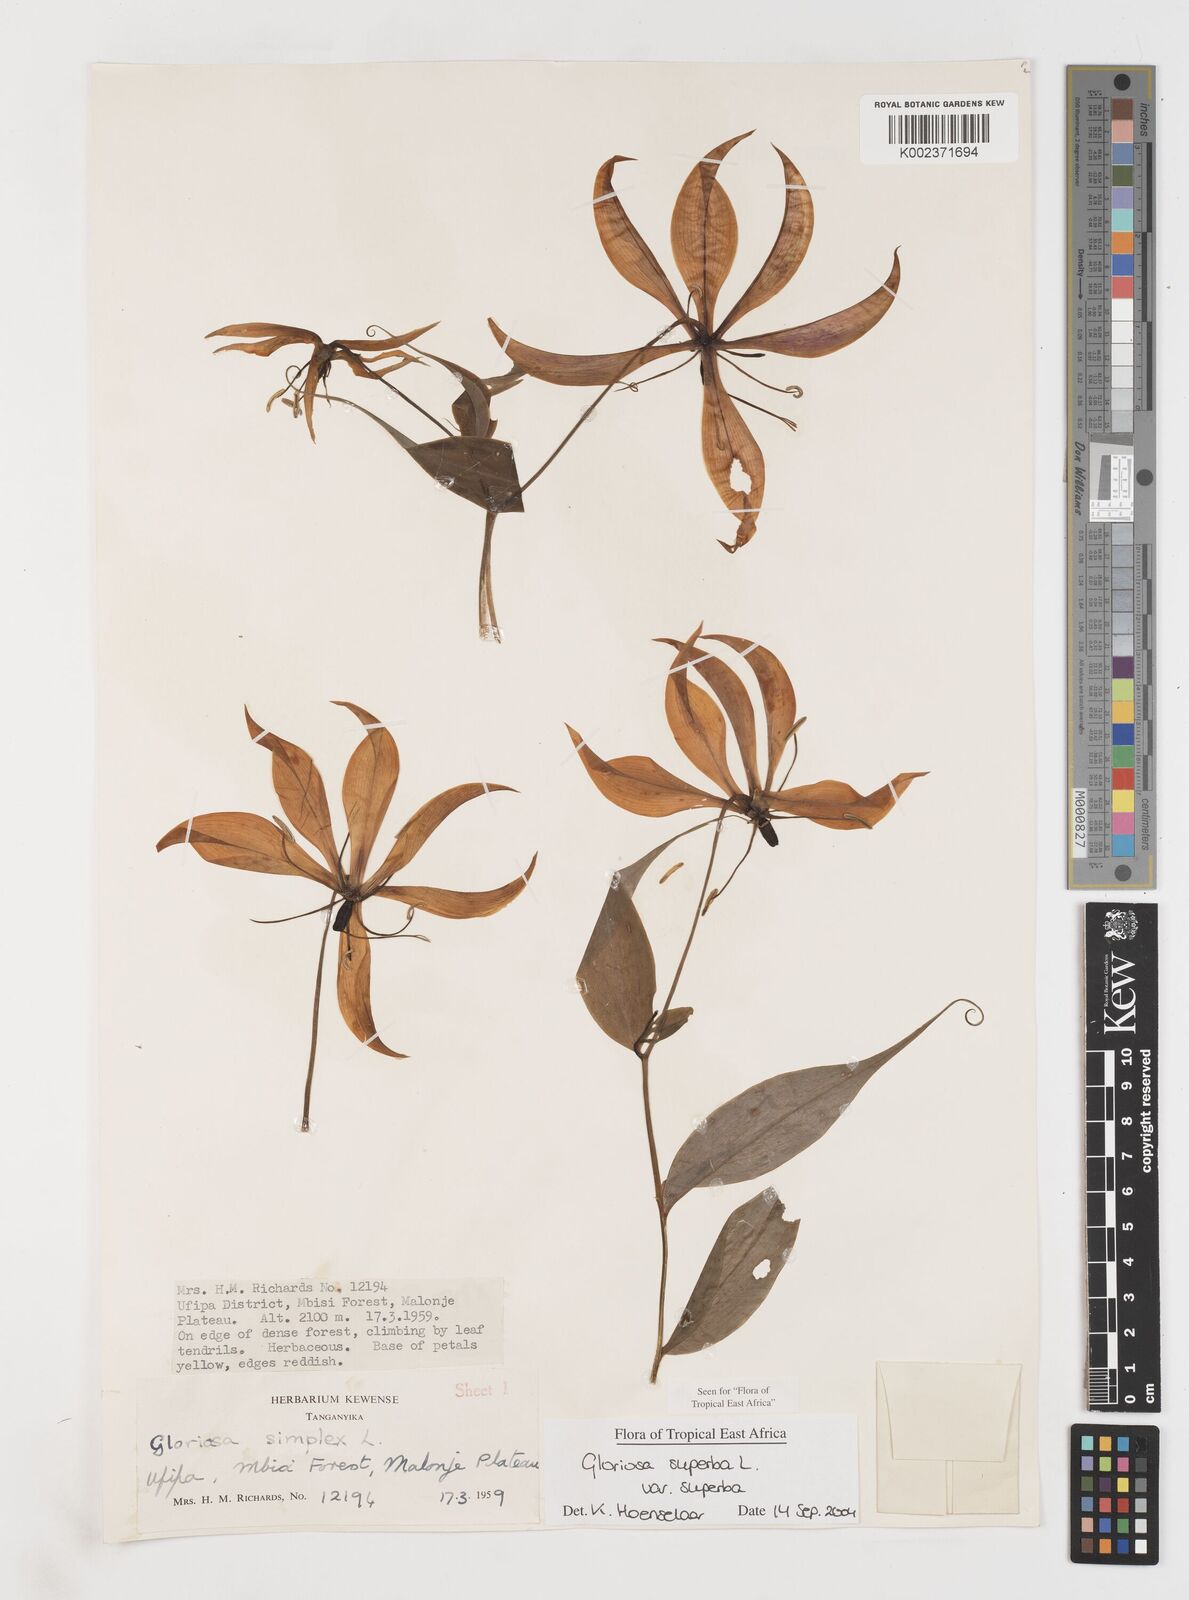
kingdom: Plantae
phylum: Tracheophyta
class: Liliopsida
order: Liliales
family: Colchicaceae
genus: Gloriosa
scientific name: Gloriosa simplex
